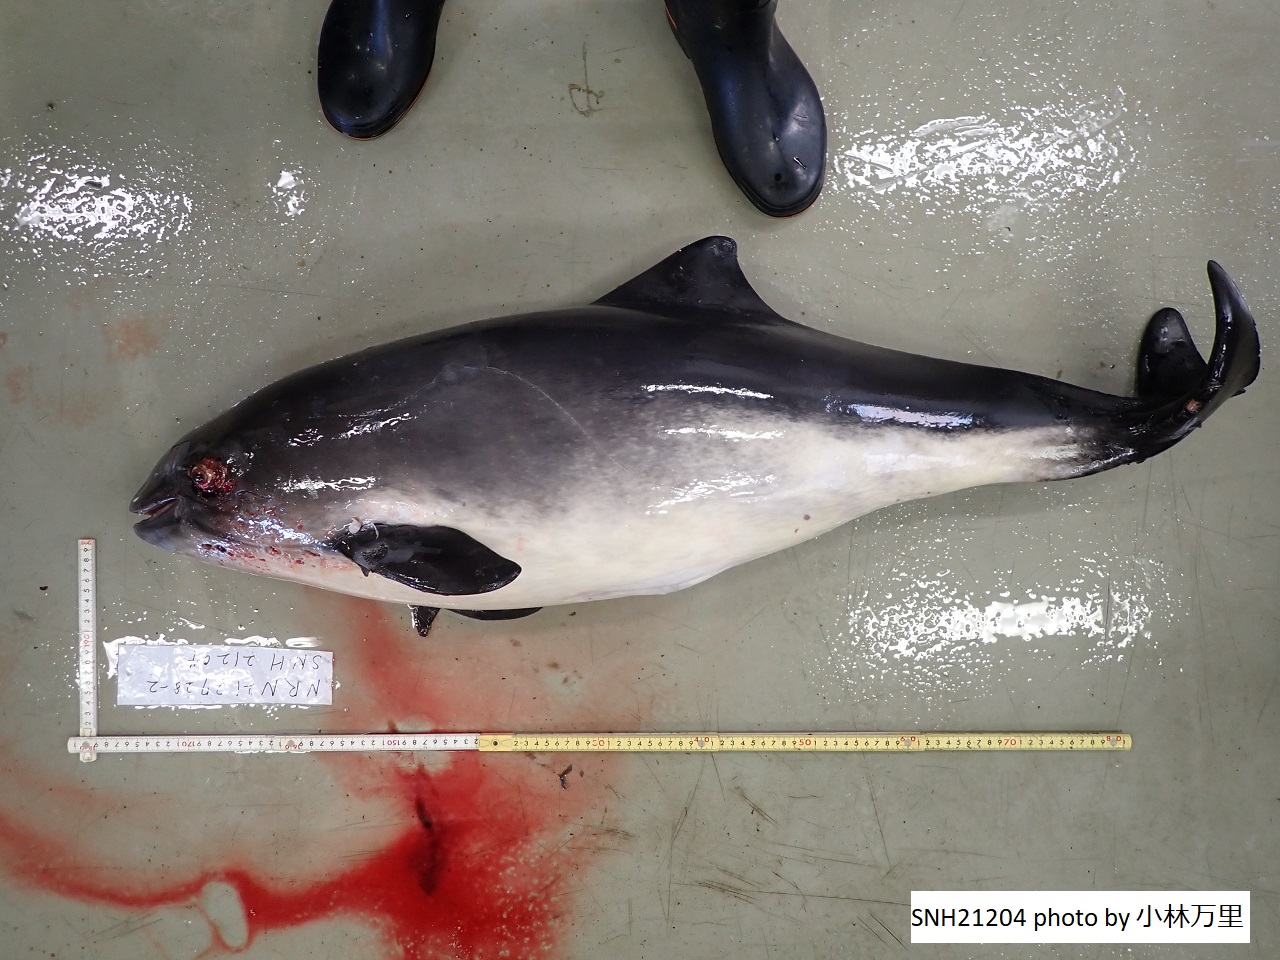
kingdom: Animalia
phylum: Chordata
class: Mammalia
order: Cetacea
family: Phocoenidae
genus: Phocoena
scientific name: Phocoena phocoena
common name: Harbour porpoise
